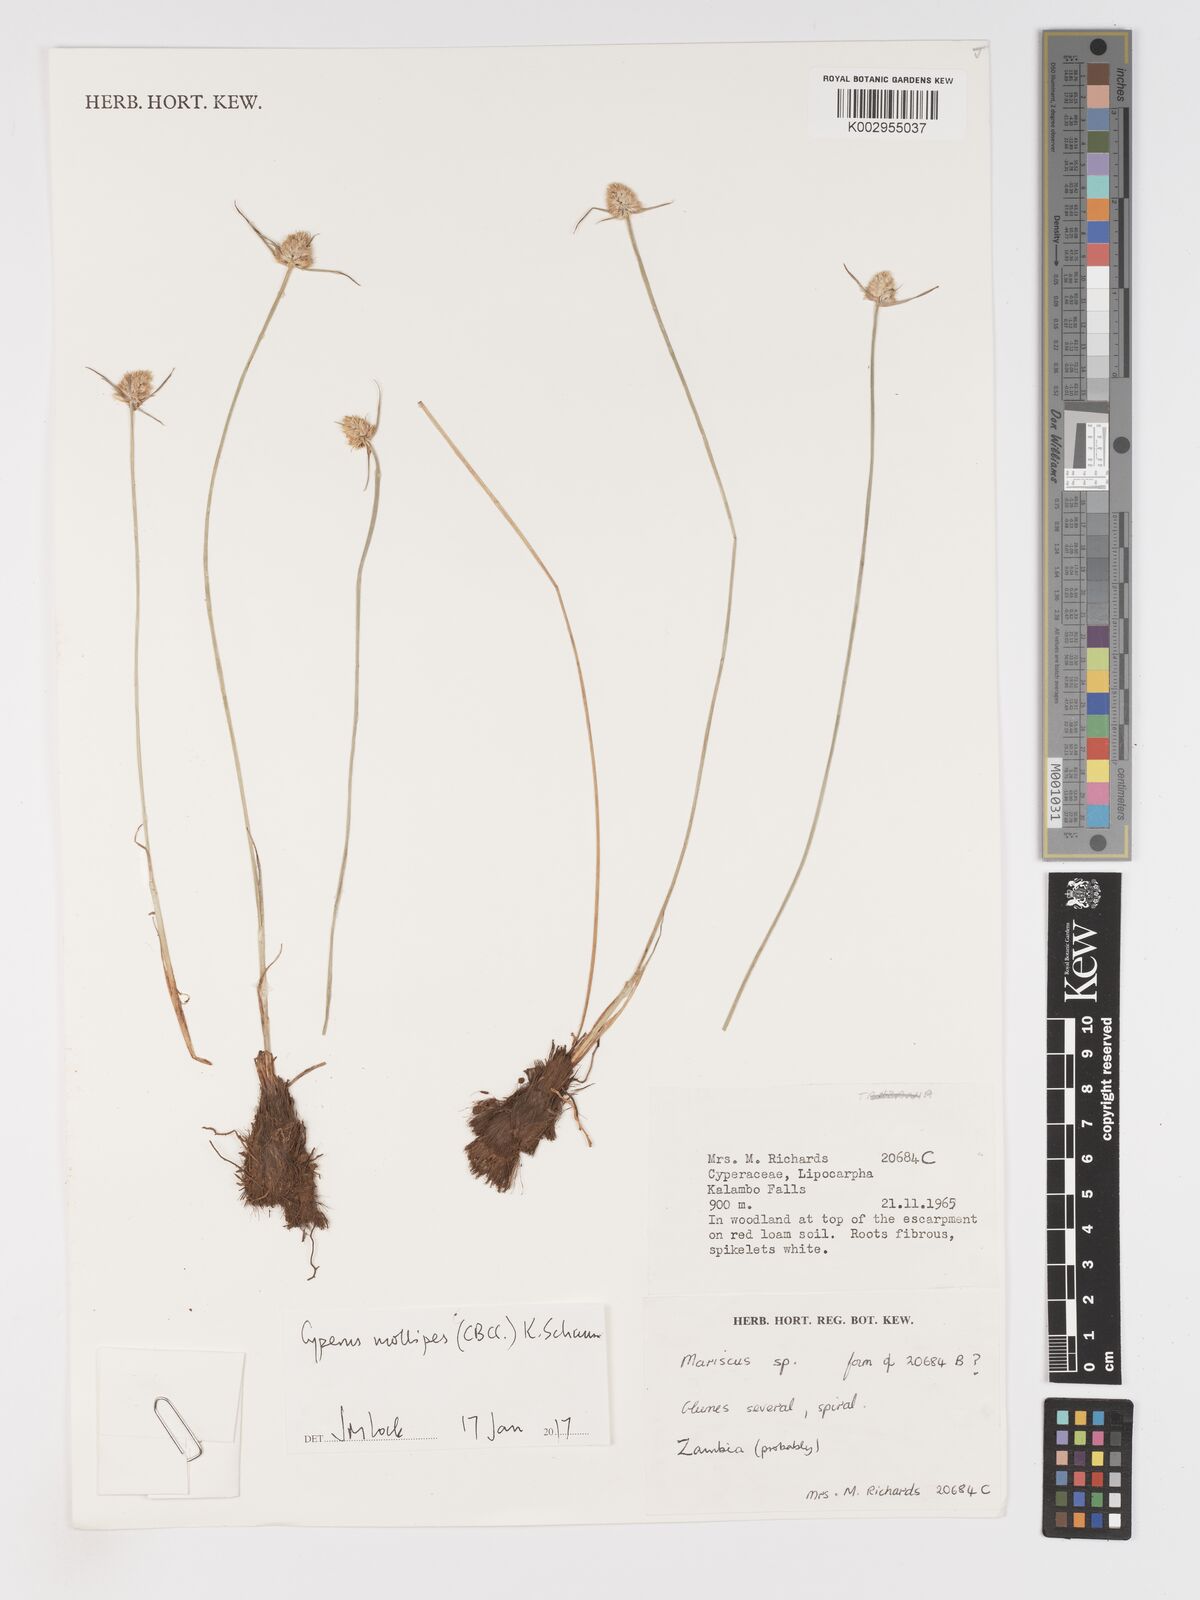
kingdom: Plantae
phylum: Tracheophyta
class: Liliopsida
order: Poales
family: Cyperaceae
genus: Cyperus
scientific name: Cyperus mollipes
